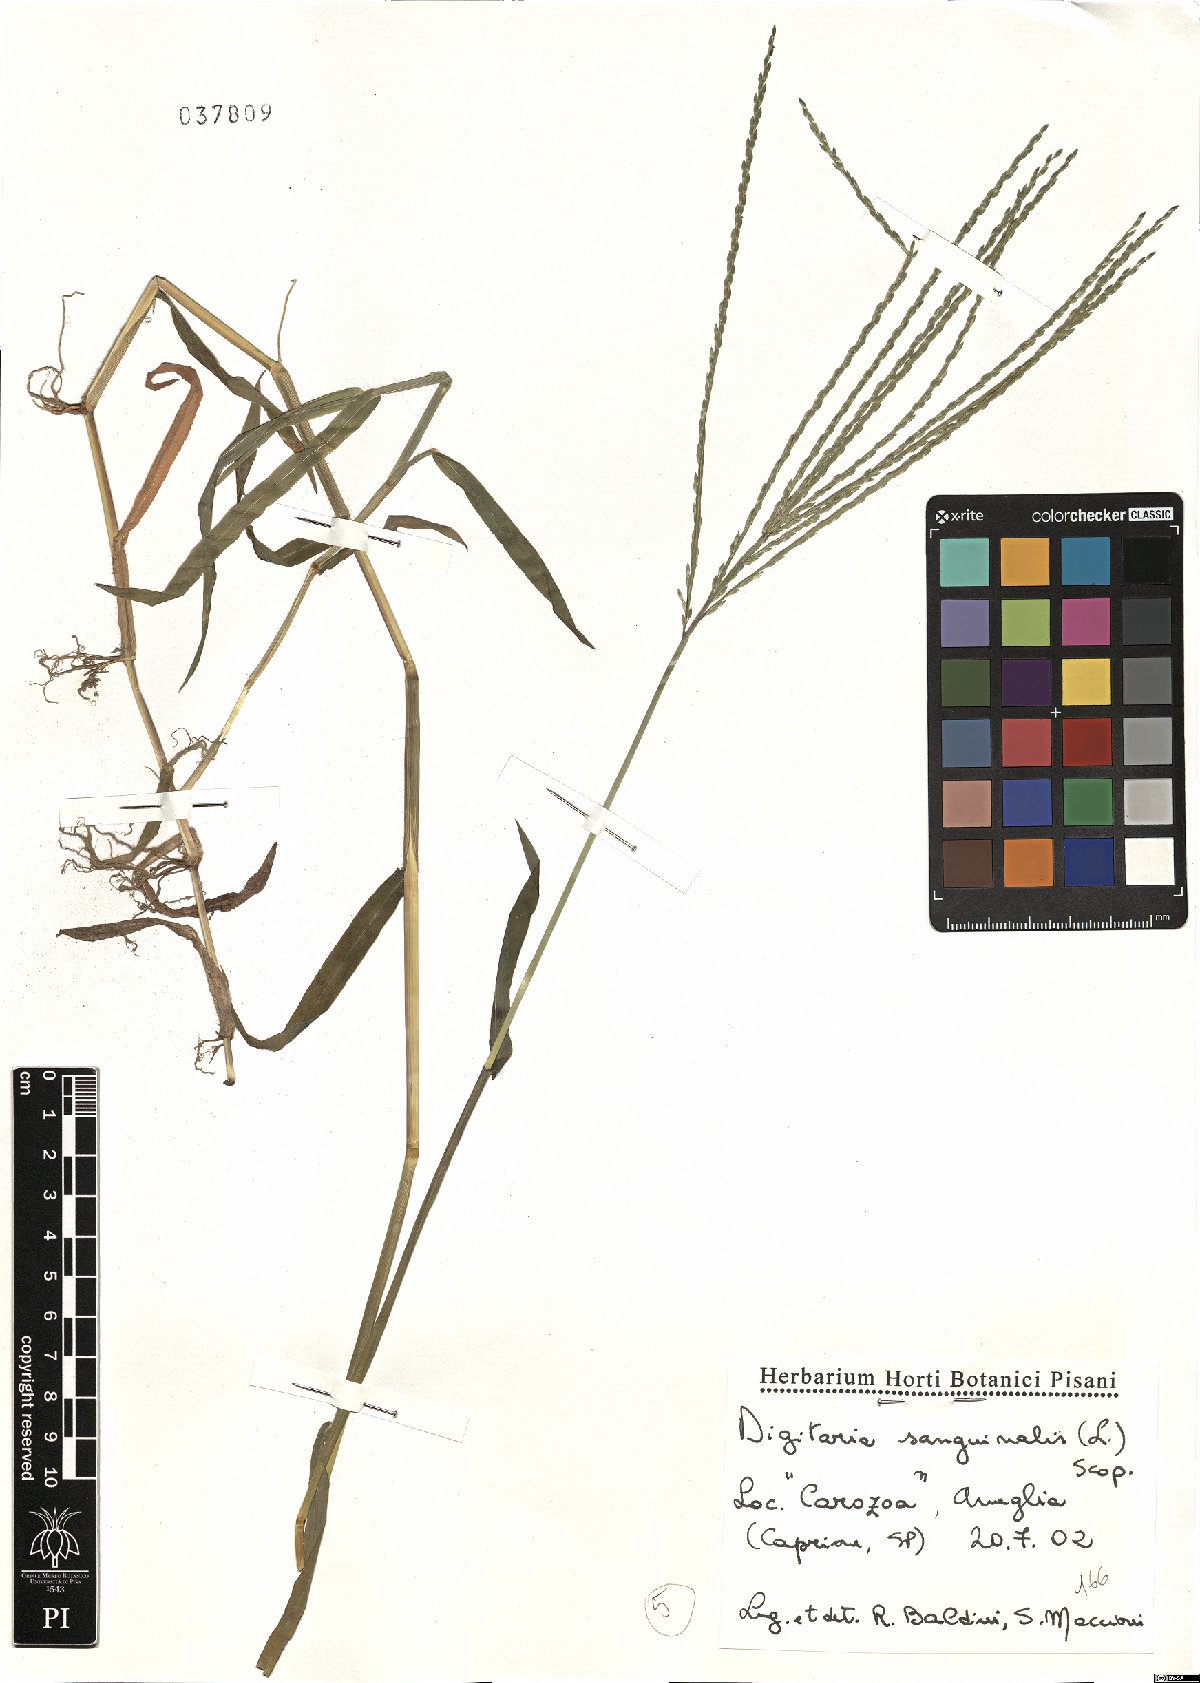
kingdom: Plantae
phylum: Tracheophyta
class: Liliopsida
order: Poales
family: Poaceae
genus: Digitaria
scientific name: Digitaria sanguinalis
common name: Hairy crabgrass
